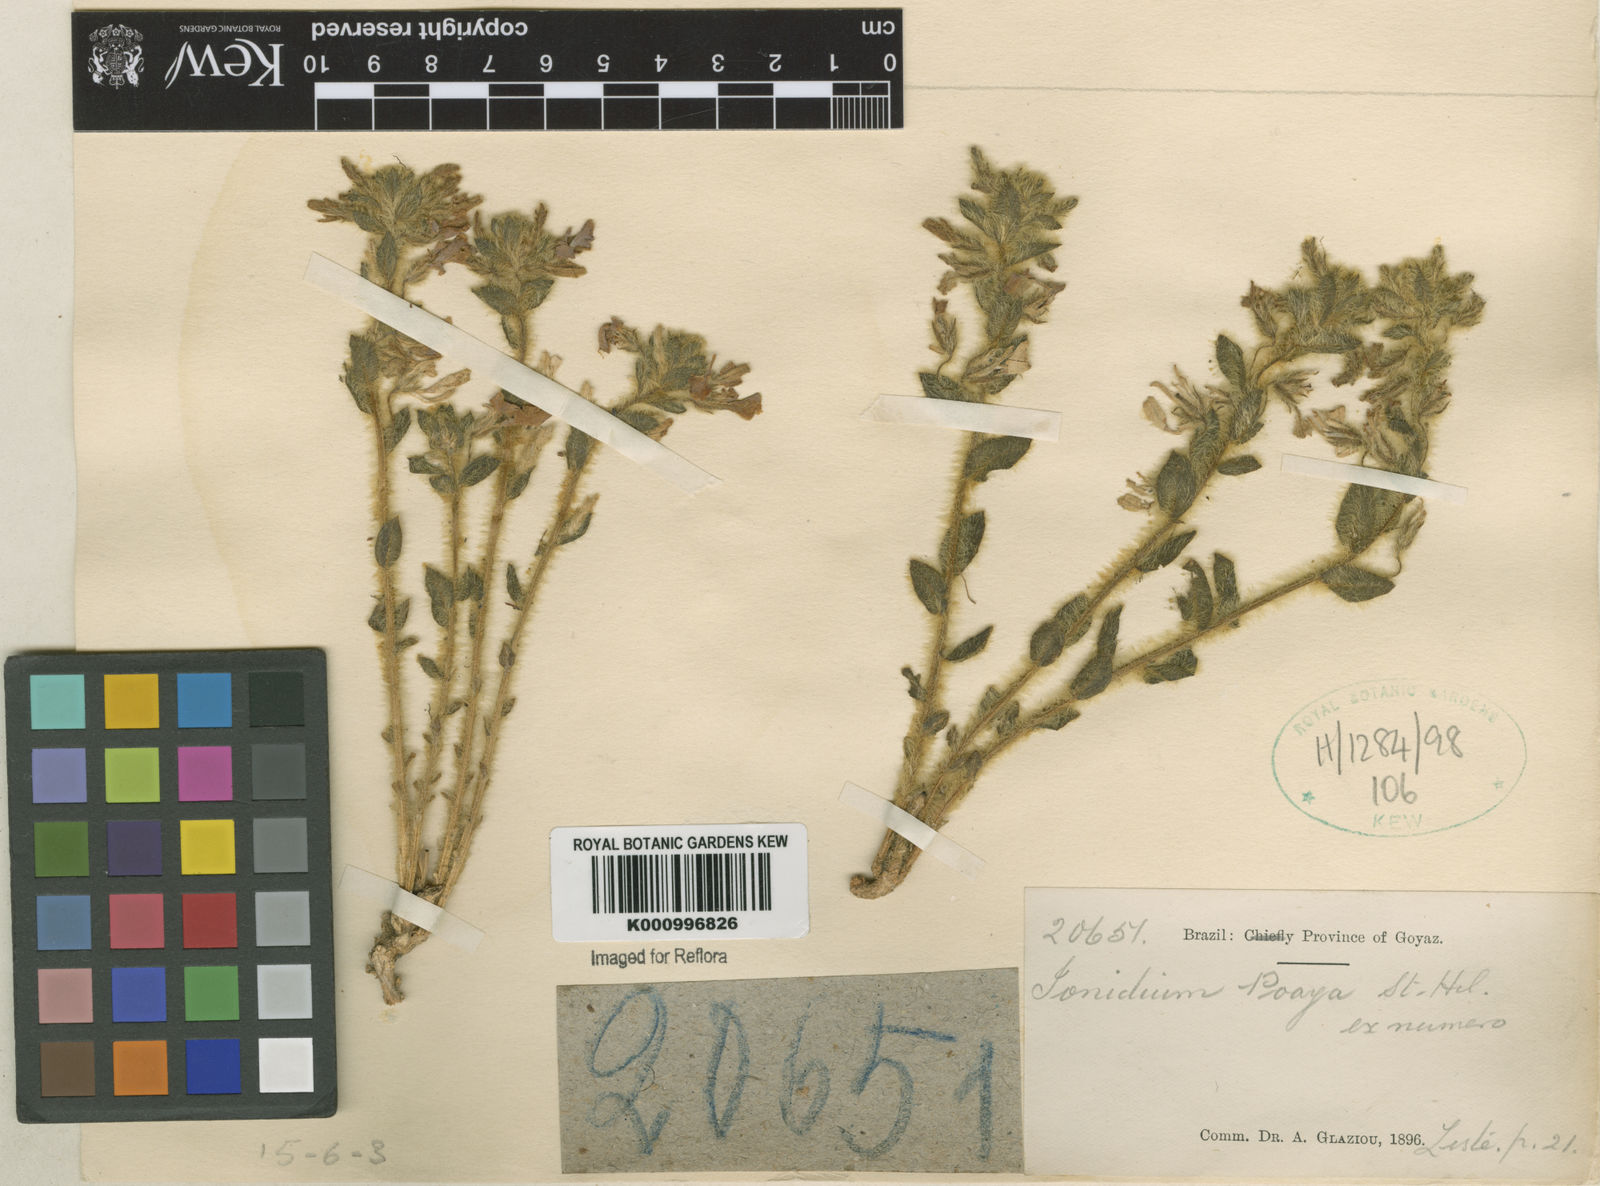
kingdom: Plantae
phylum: Tracheophyta
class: Magnoliopsida
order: Malpighiales
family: Violaceae
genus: Pombalia
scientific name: Pombalia poaya
